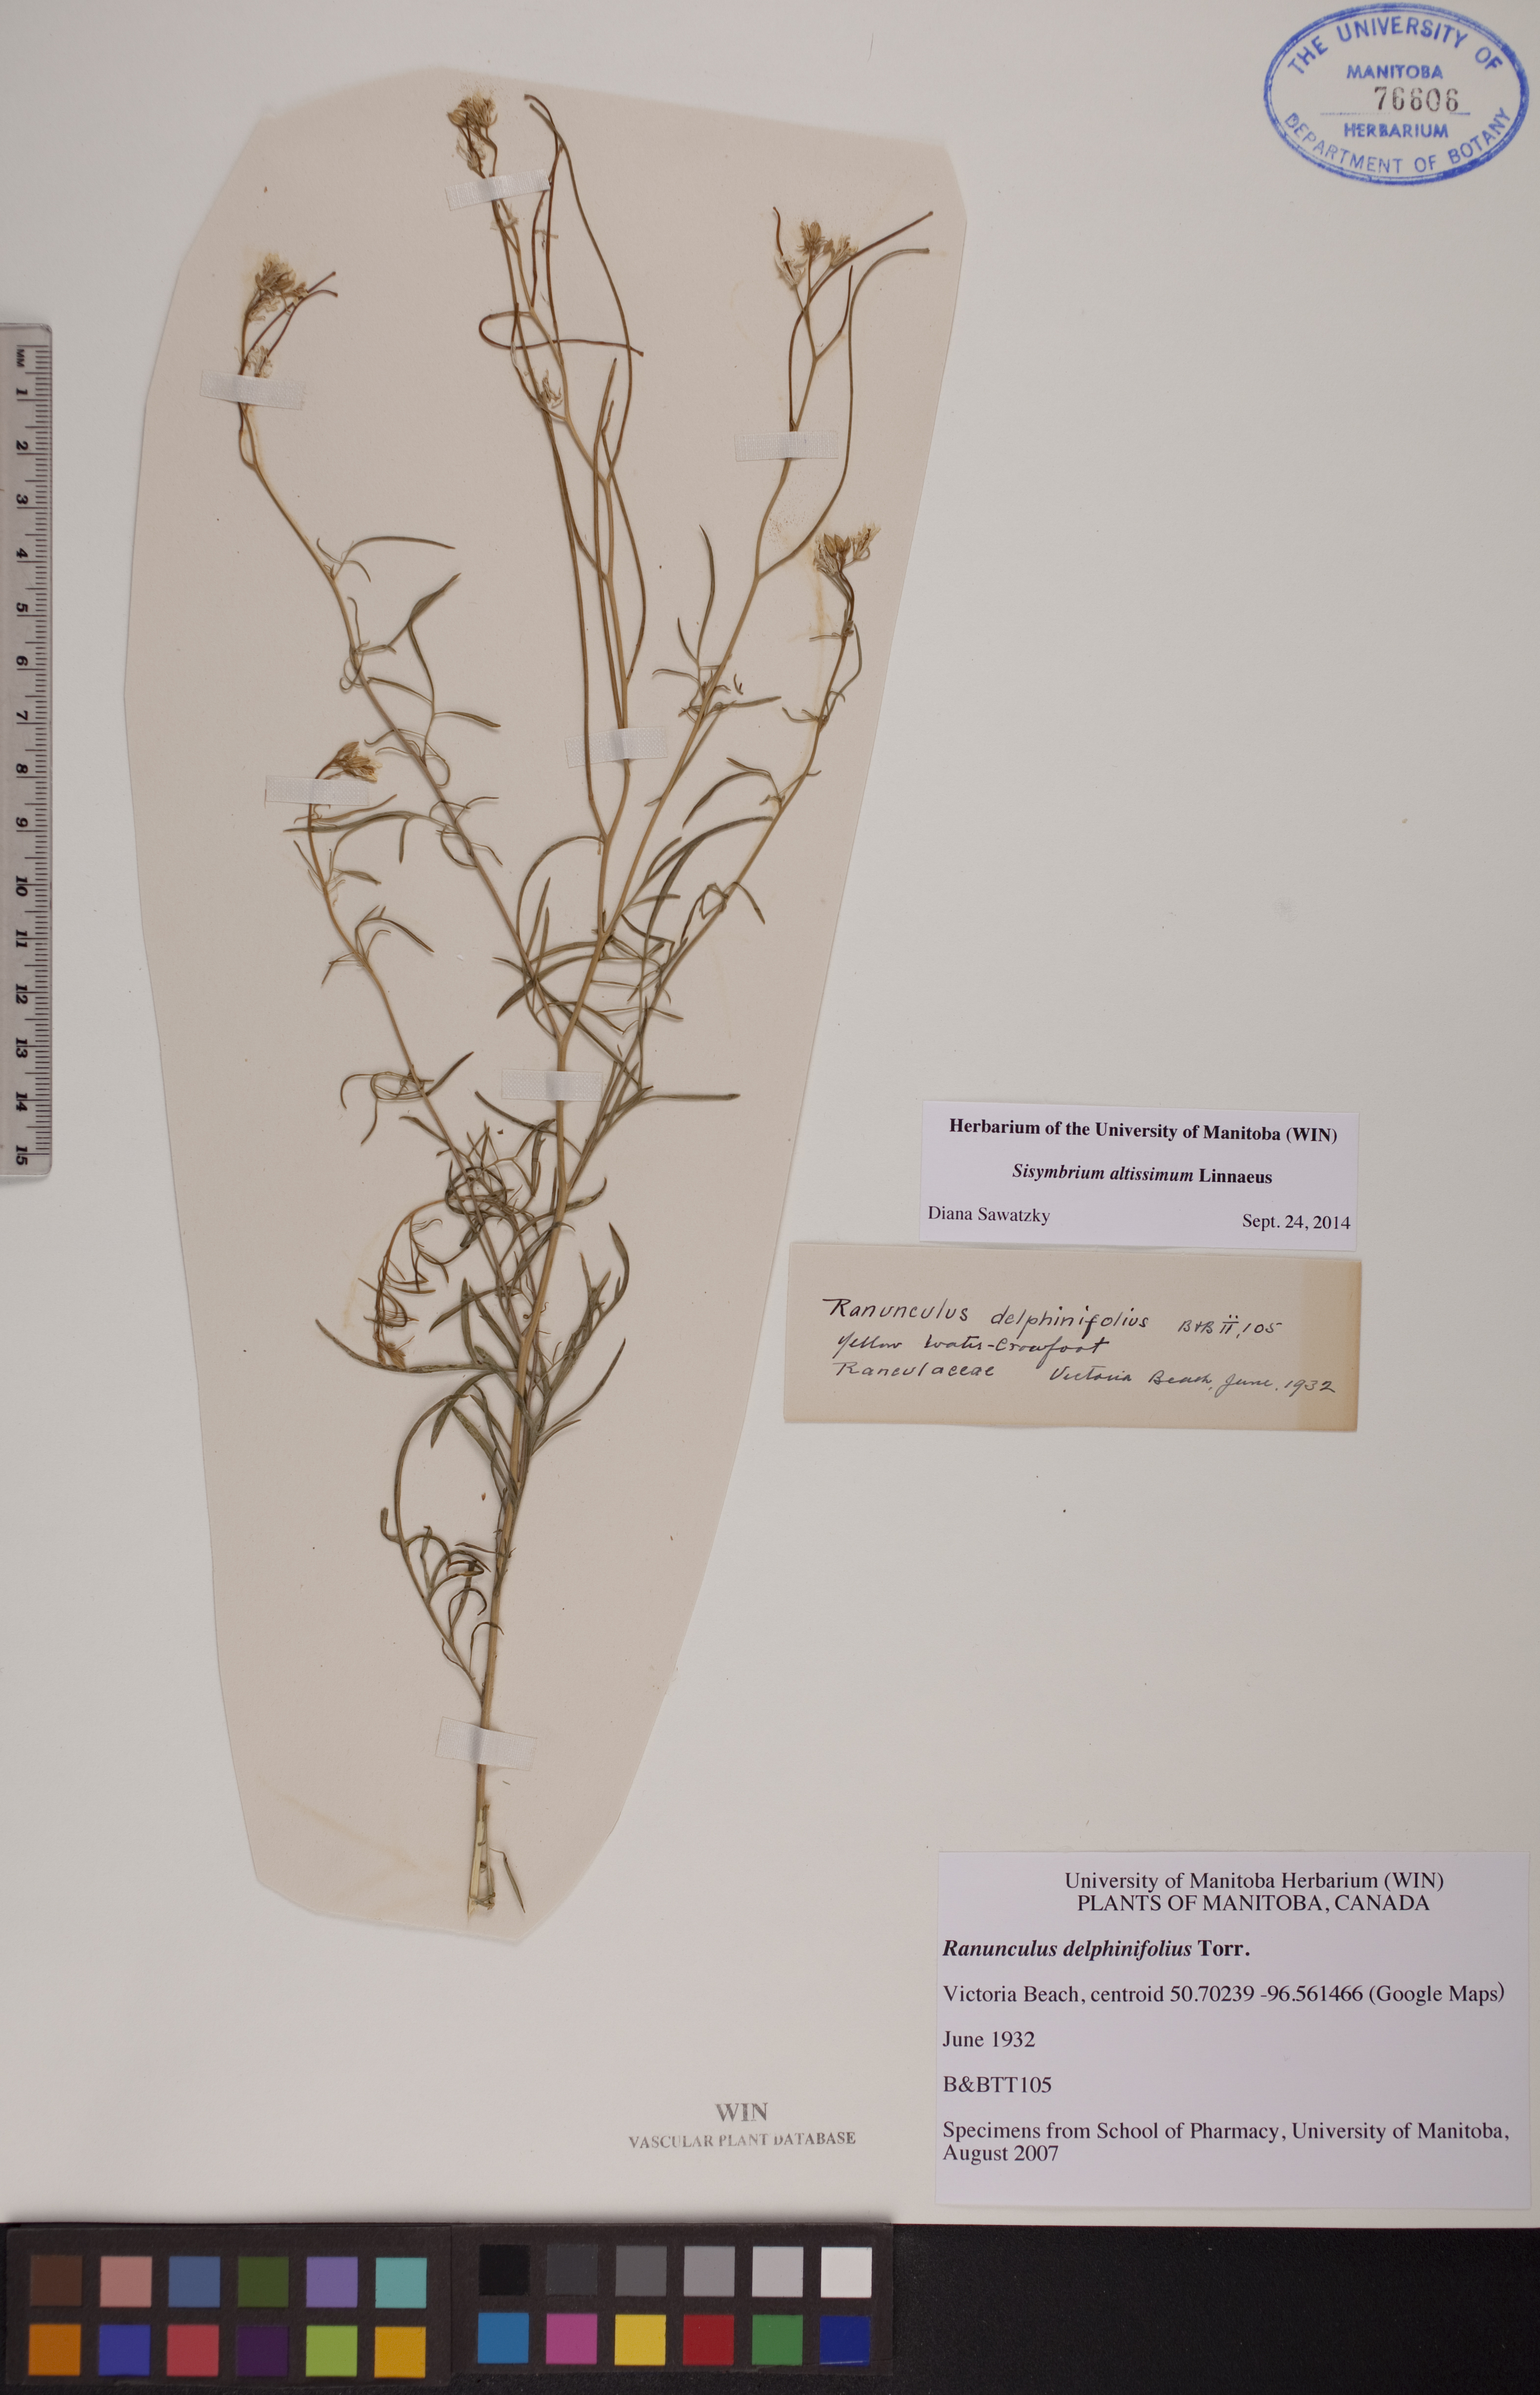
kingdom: Plantae
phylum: Tracheophyta
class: Magnoliopsida
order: Brassicales
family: Brassicaceae
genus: Sisymbrium
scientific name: Sisymbrium altissimum
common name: Tall rocket
